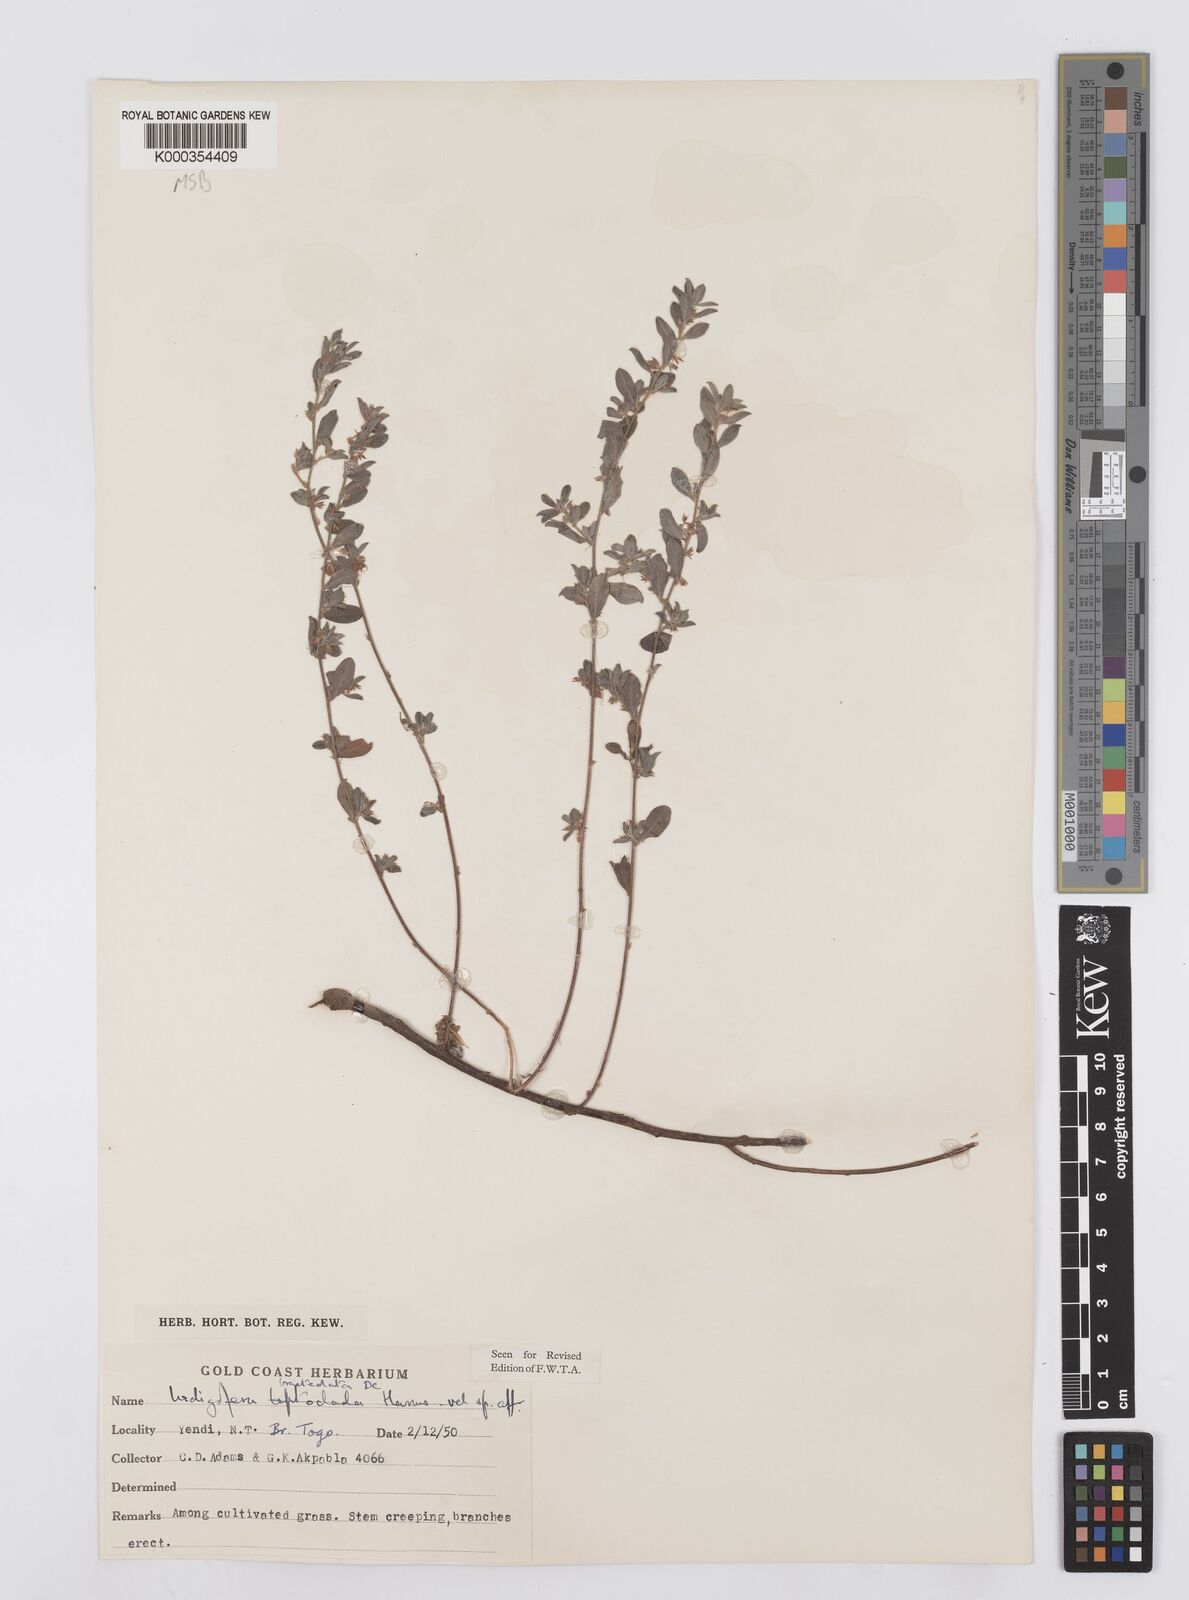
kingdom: Plantae
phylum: Tracheophyta
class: Magnoliopsida
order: Fabales
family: Fabaceae
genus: Indigofera
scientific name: Indigofera bracteolata
